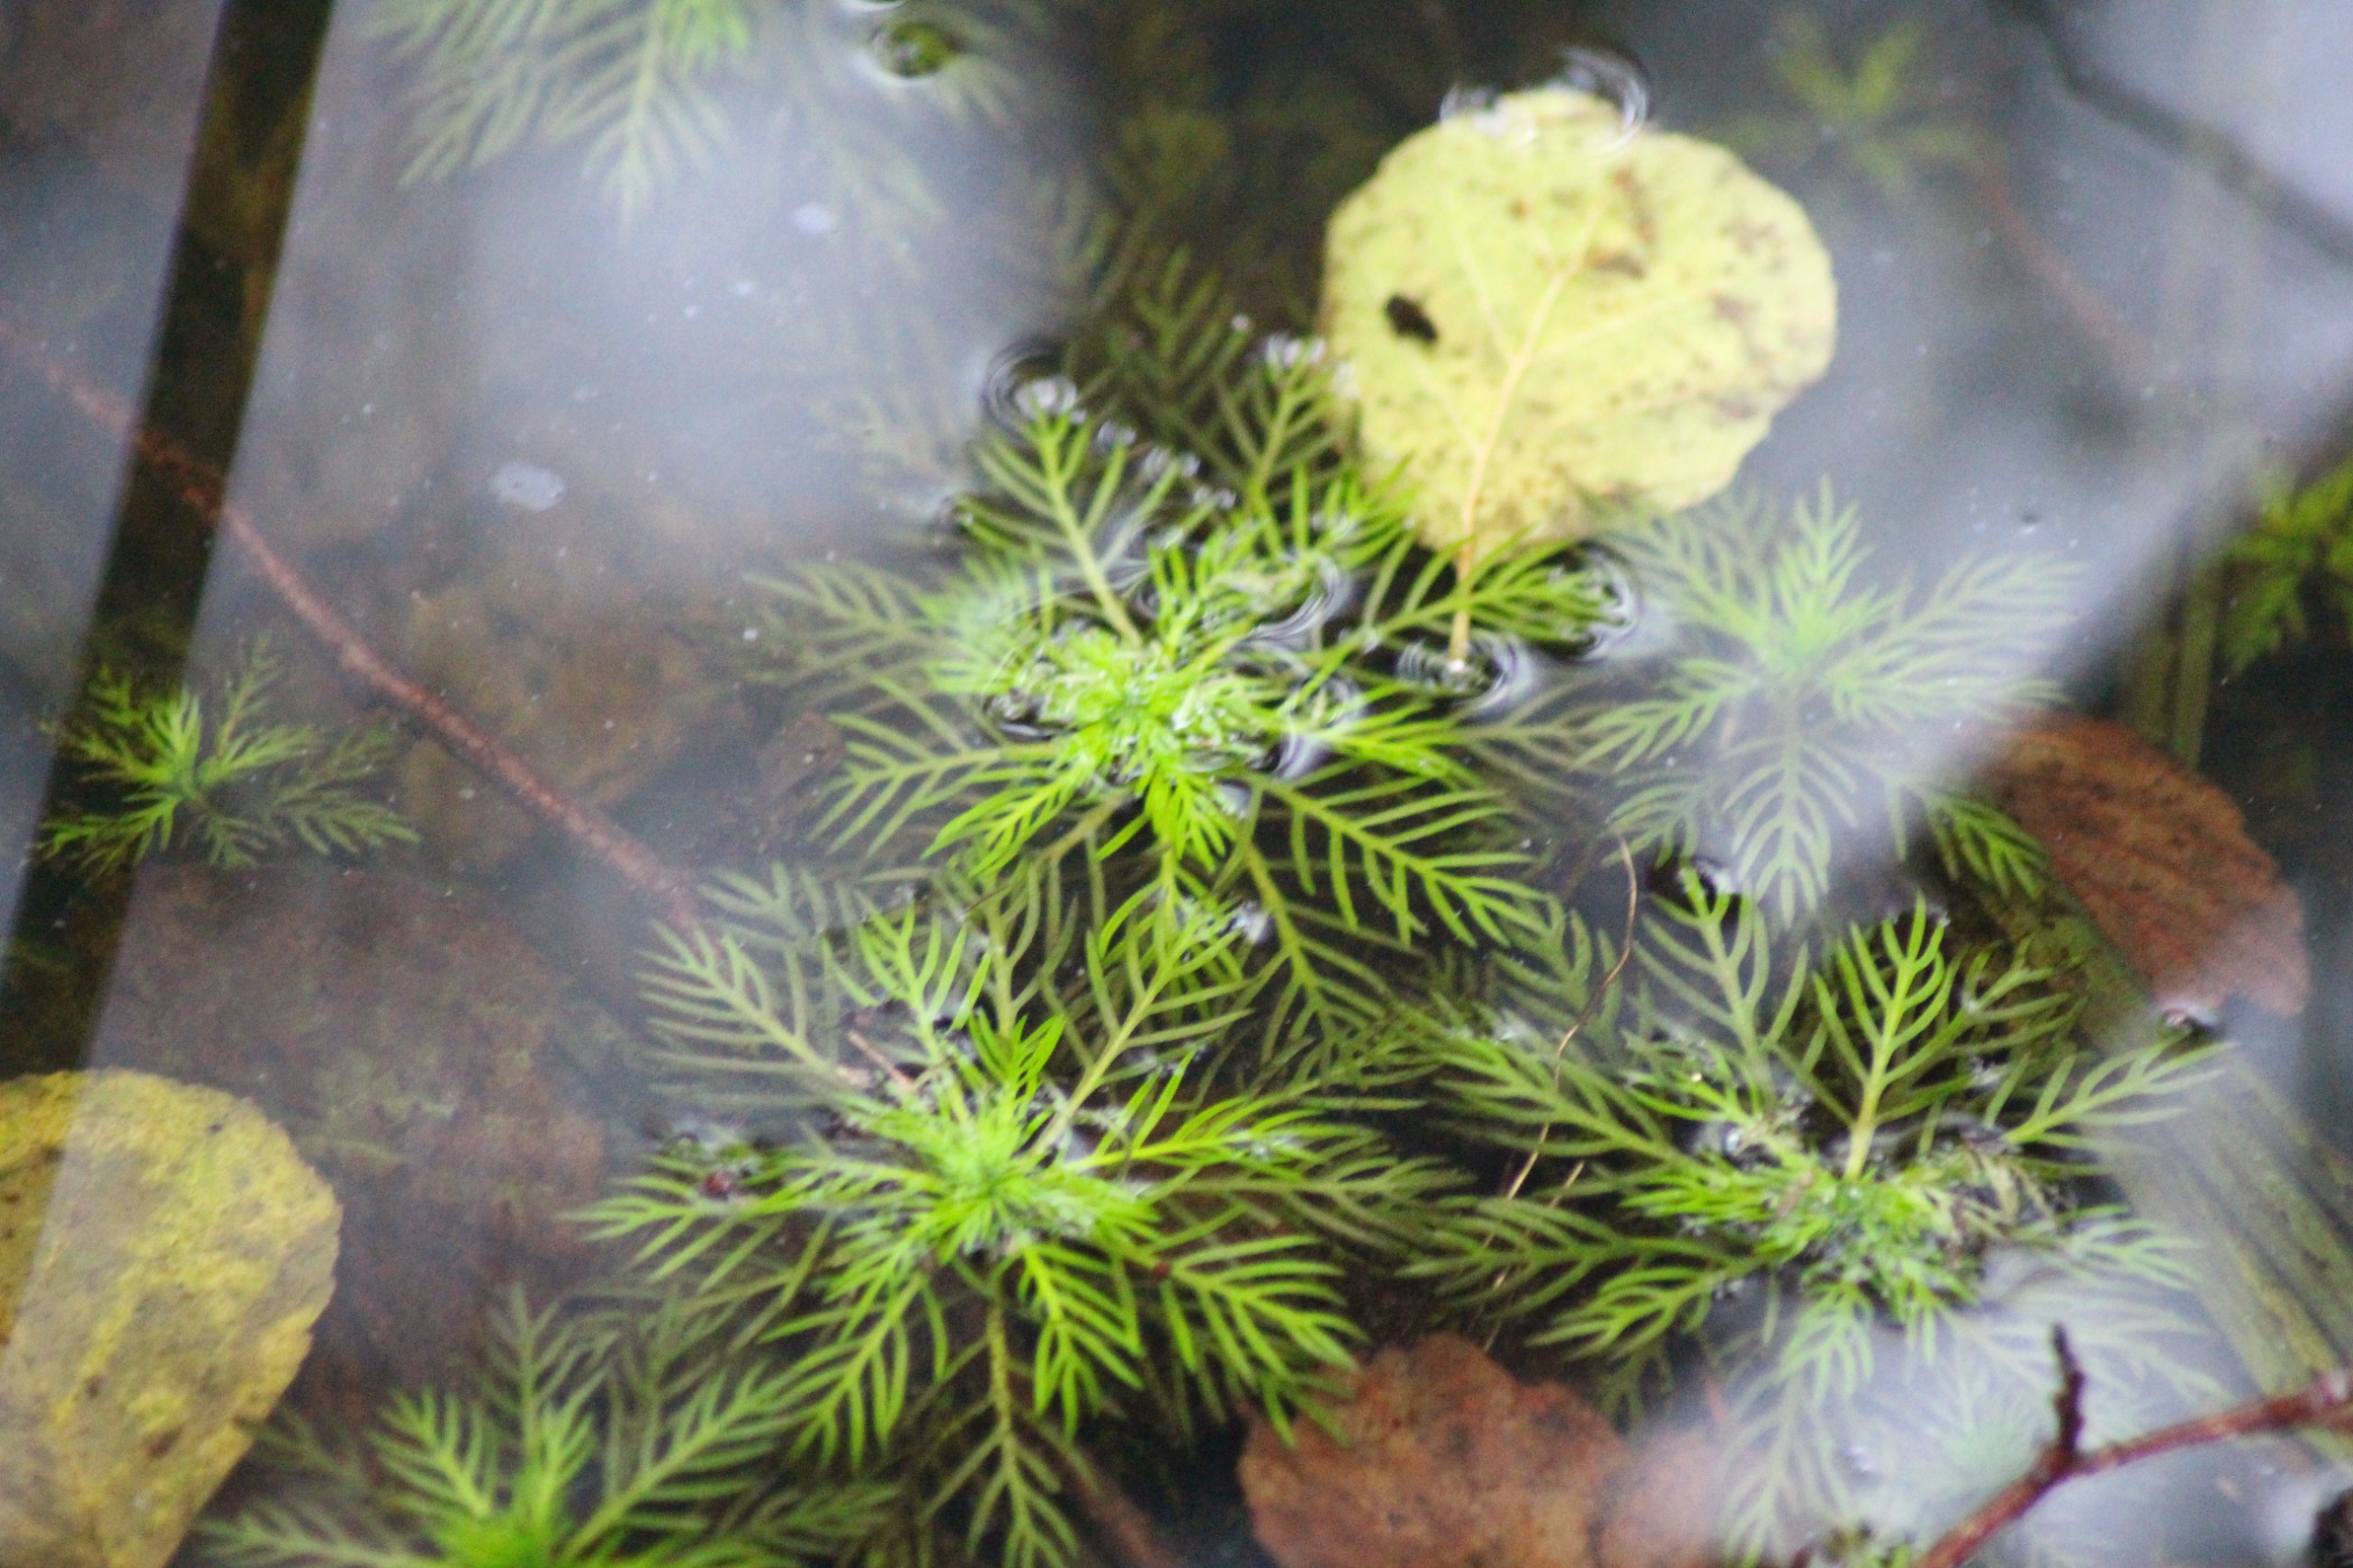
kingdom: Plantae
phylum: Tracheophyta
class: Magnoliopsida
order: Ericales
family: Primulaceae
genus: Hottonia
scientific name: Hottonia palustris
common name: Vandrøllike
